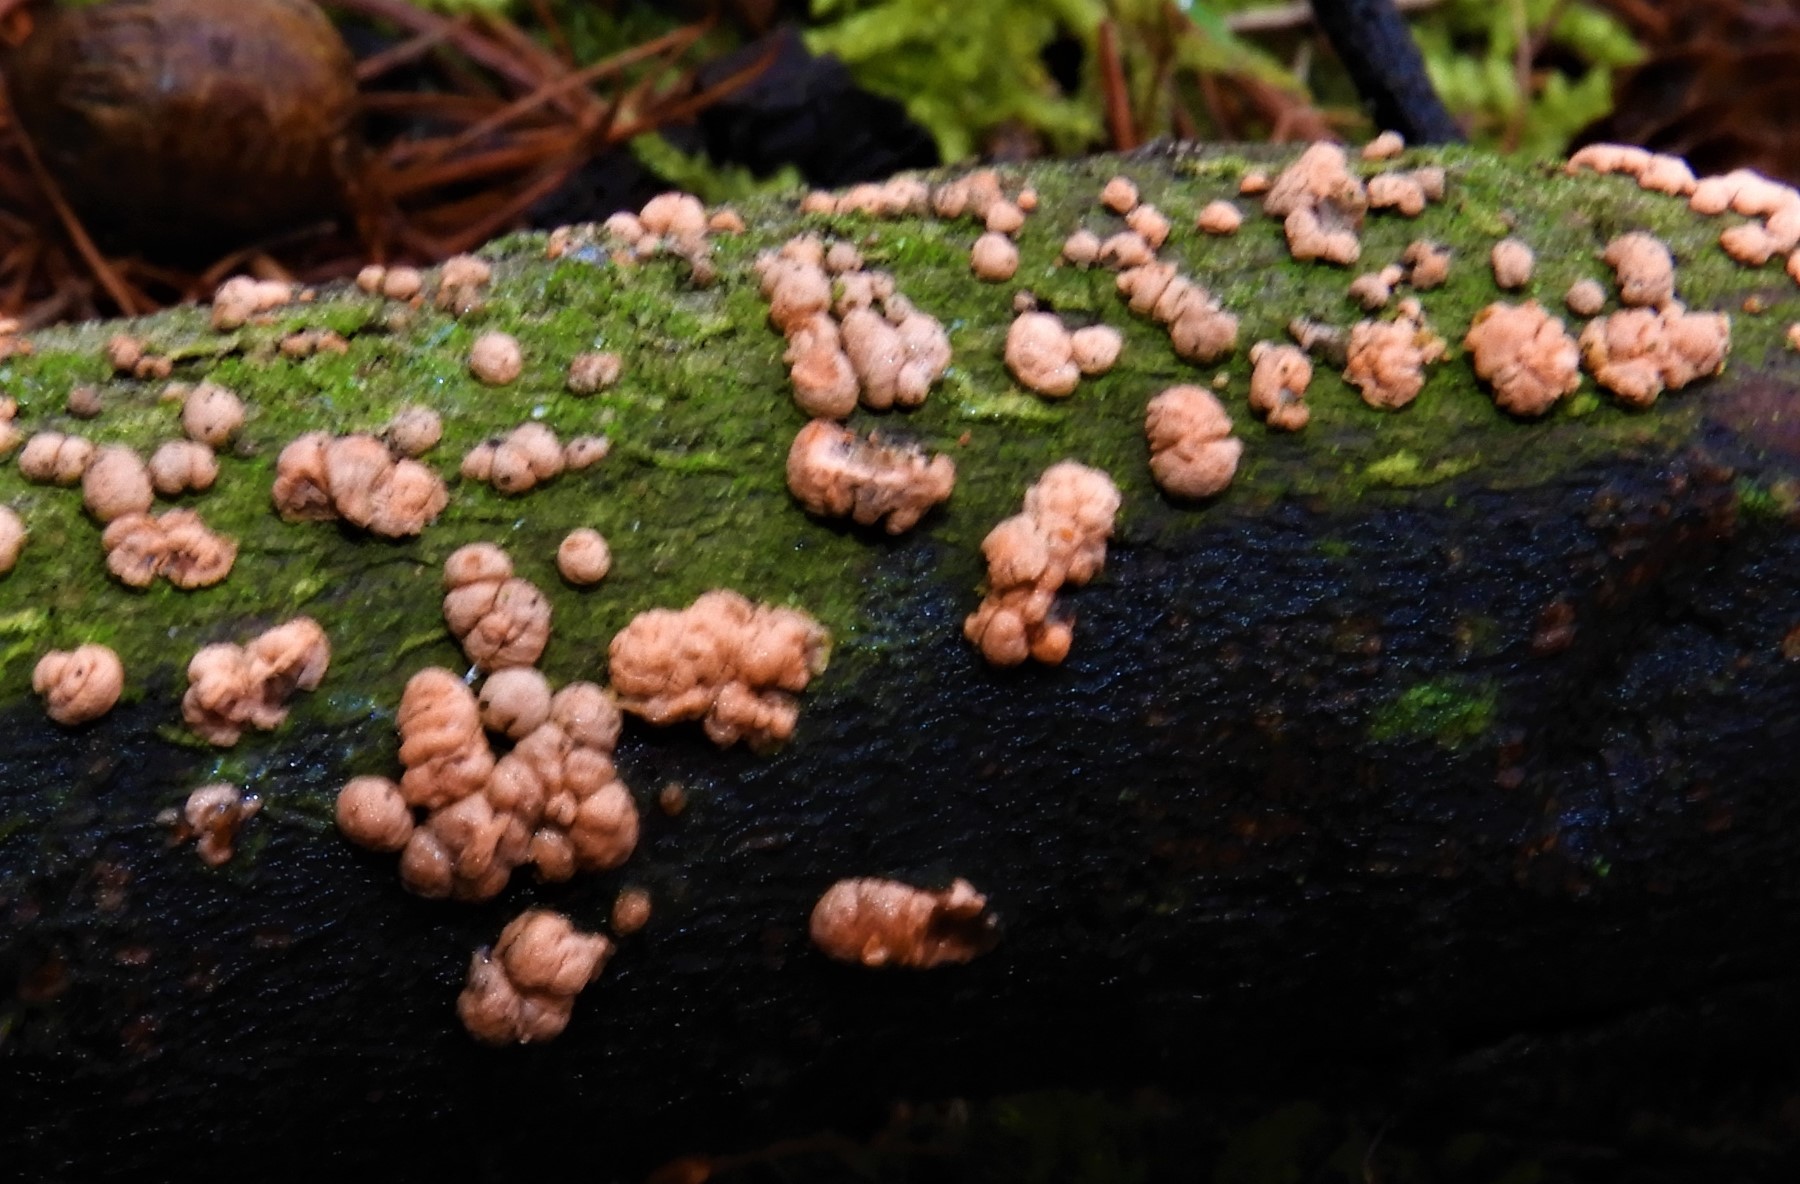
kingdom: Fungi
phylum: Ascomycota
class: Sordariomycetes
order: Hypocreales
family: Nectriaceae
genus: Nectria
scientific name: Nectria cinnabarina
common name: almindelig cinnobersvamp
